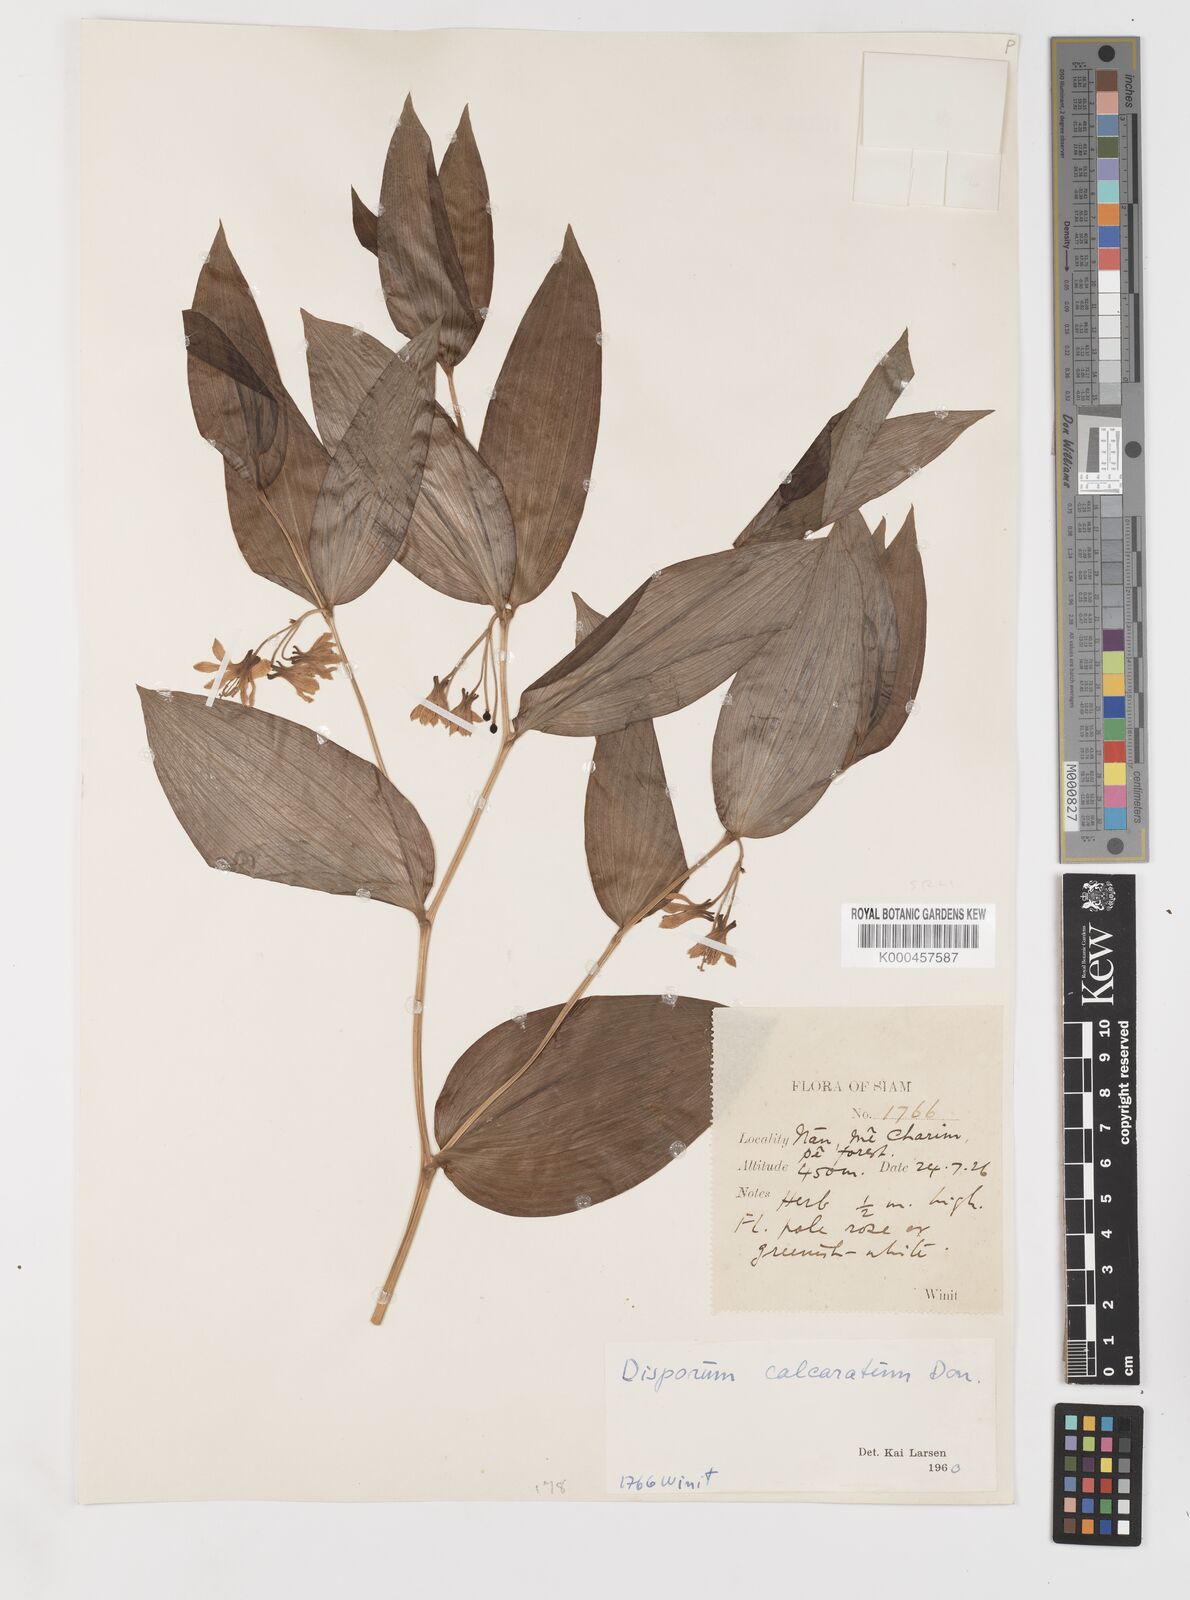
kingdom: Plantae
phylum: Tracheophyta
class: Liliopsida
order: Liliales
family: Colchicaceae
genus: Disporum
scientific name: Disporum calcaratum
